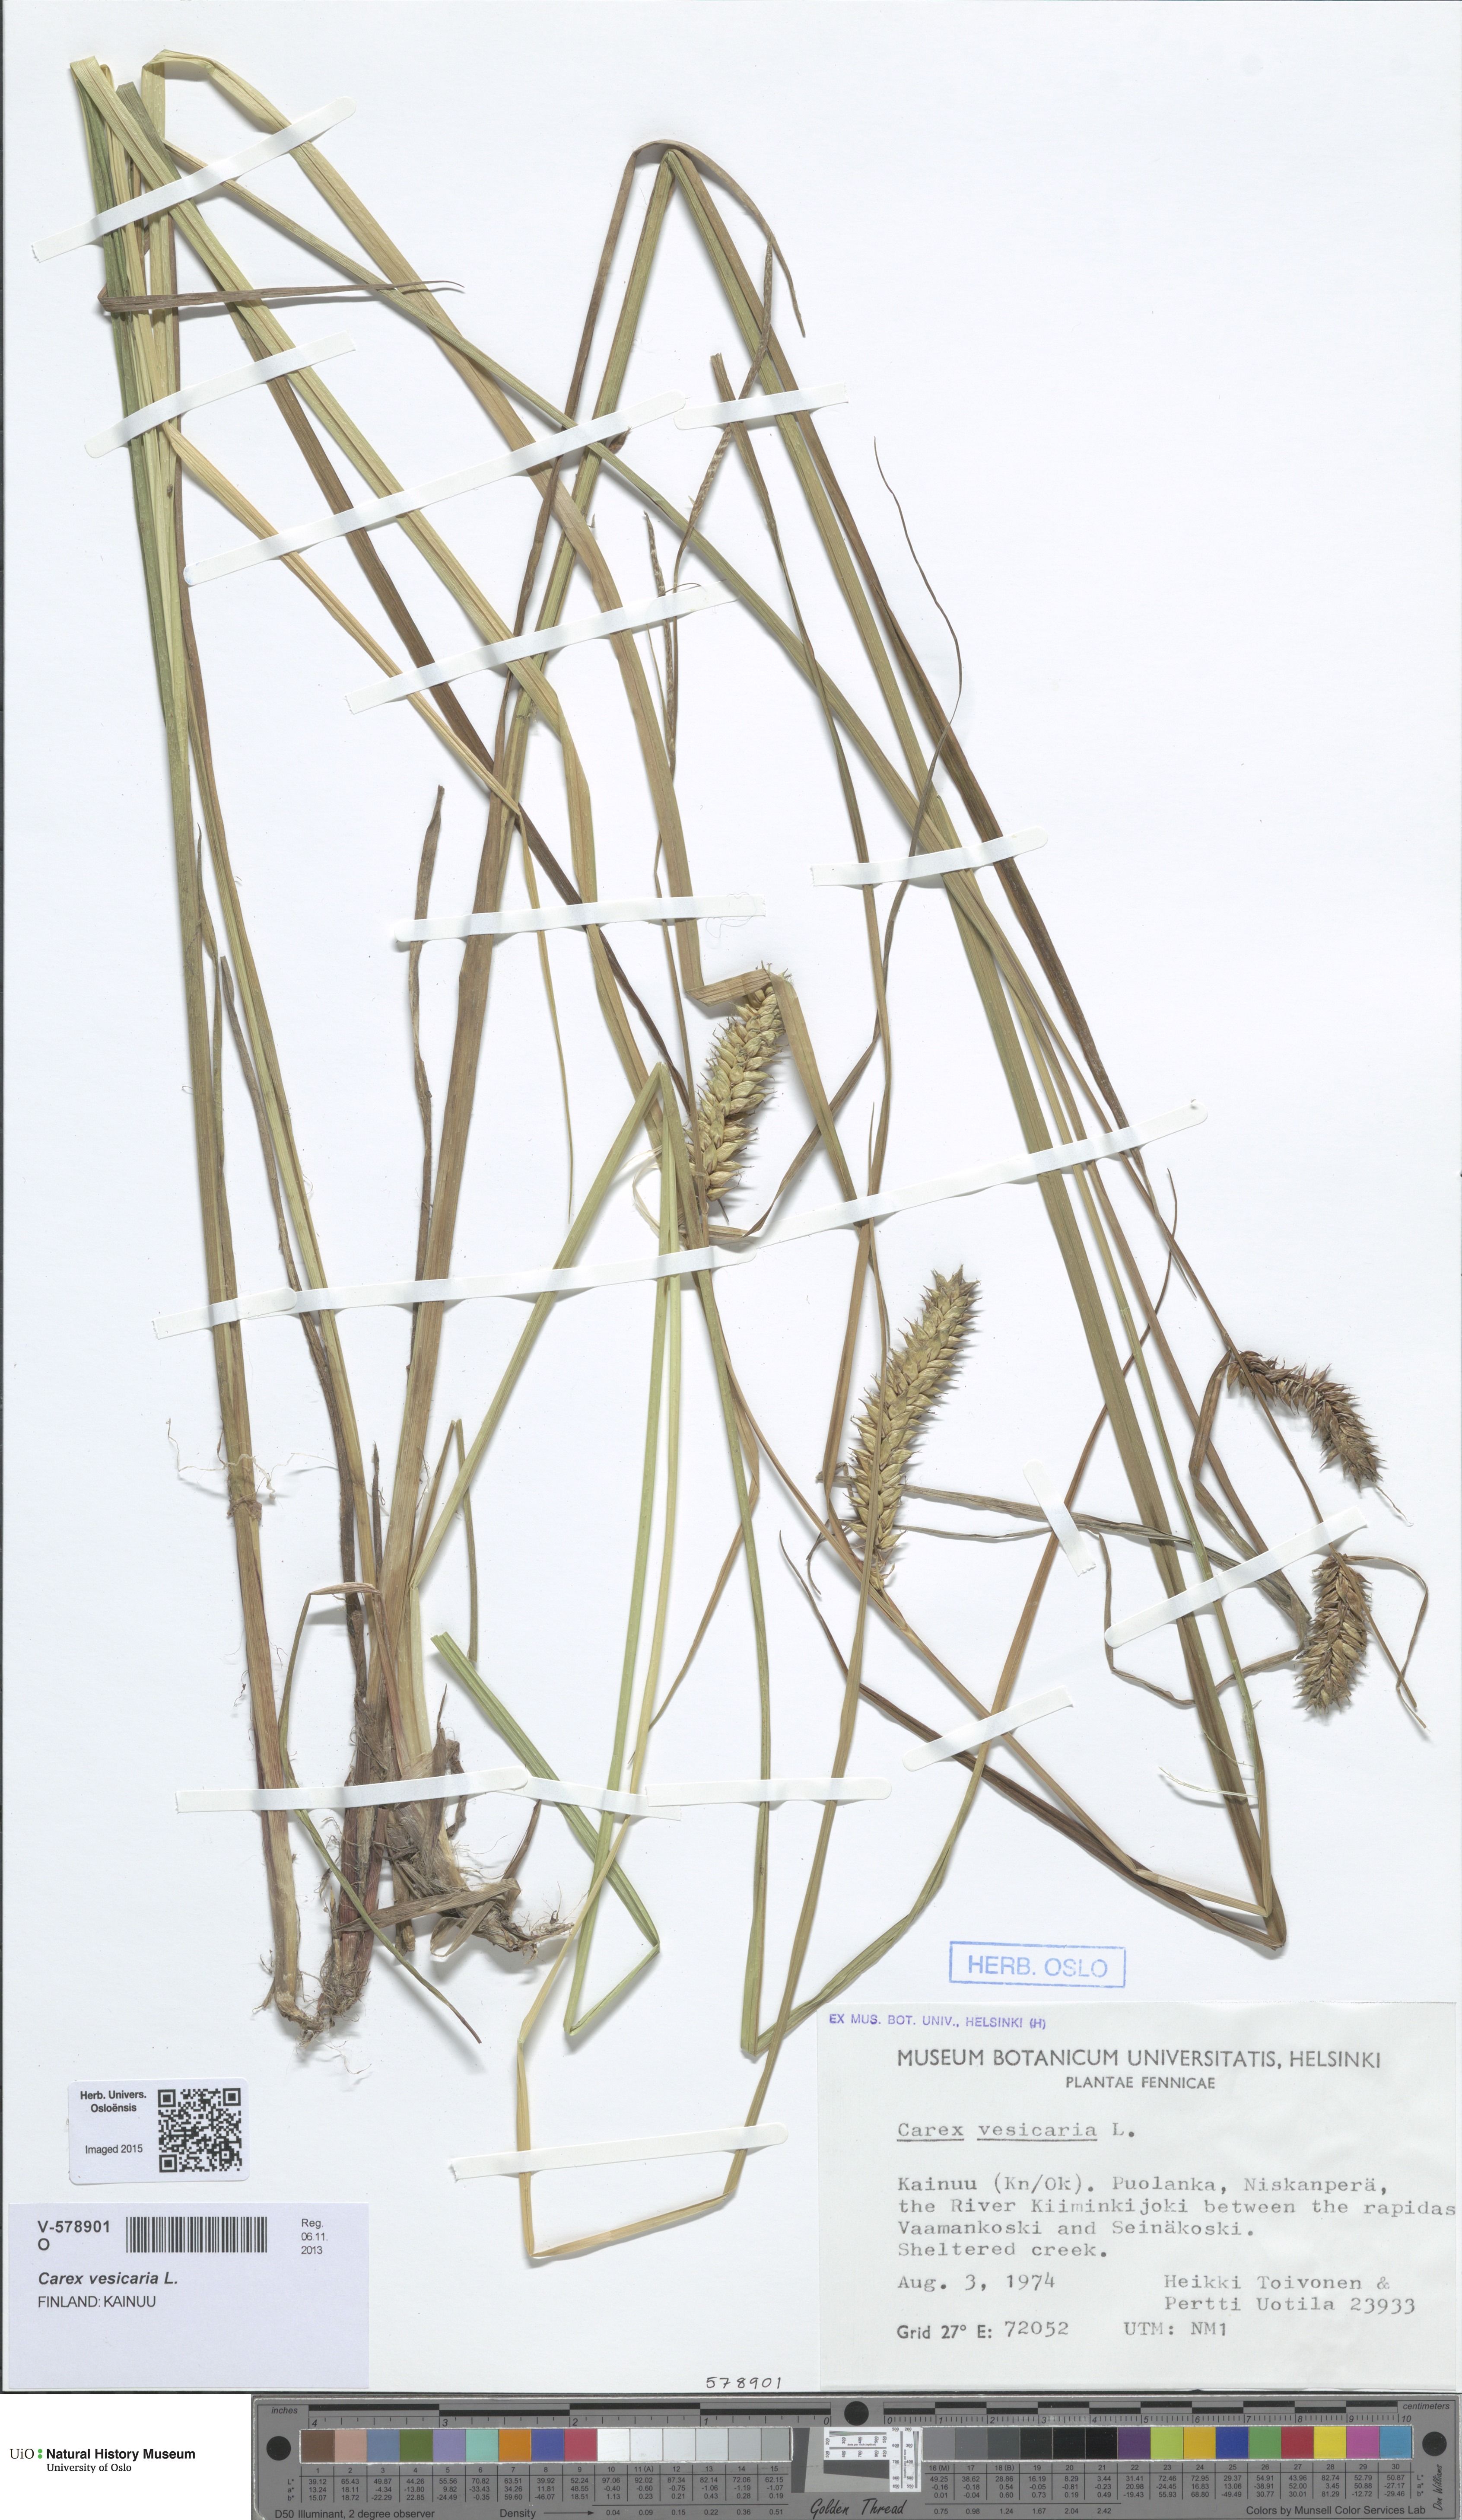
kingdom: Plantae
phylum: Tracheophyta
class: Liliopsida
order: Poales
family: Cyperaceae
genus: Carex
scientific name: Carex vesicaria
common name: Bladder-sedge
